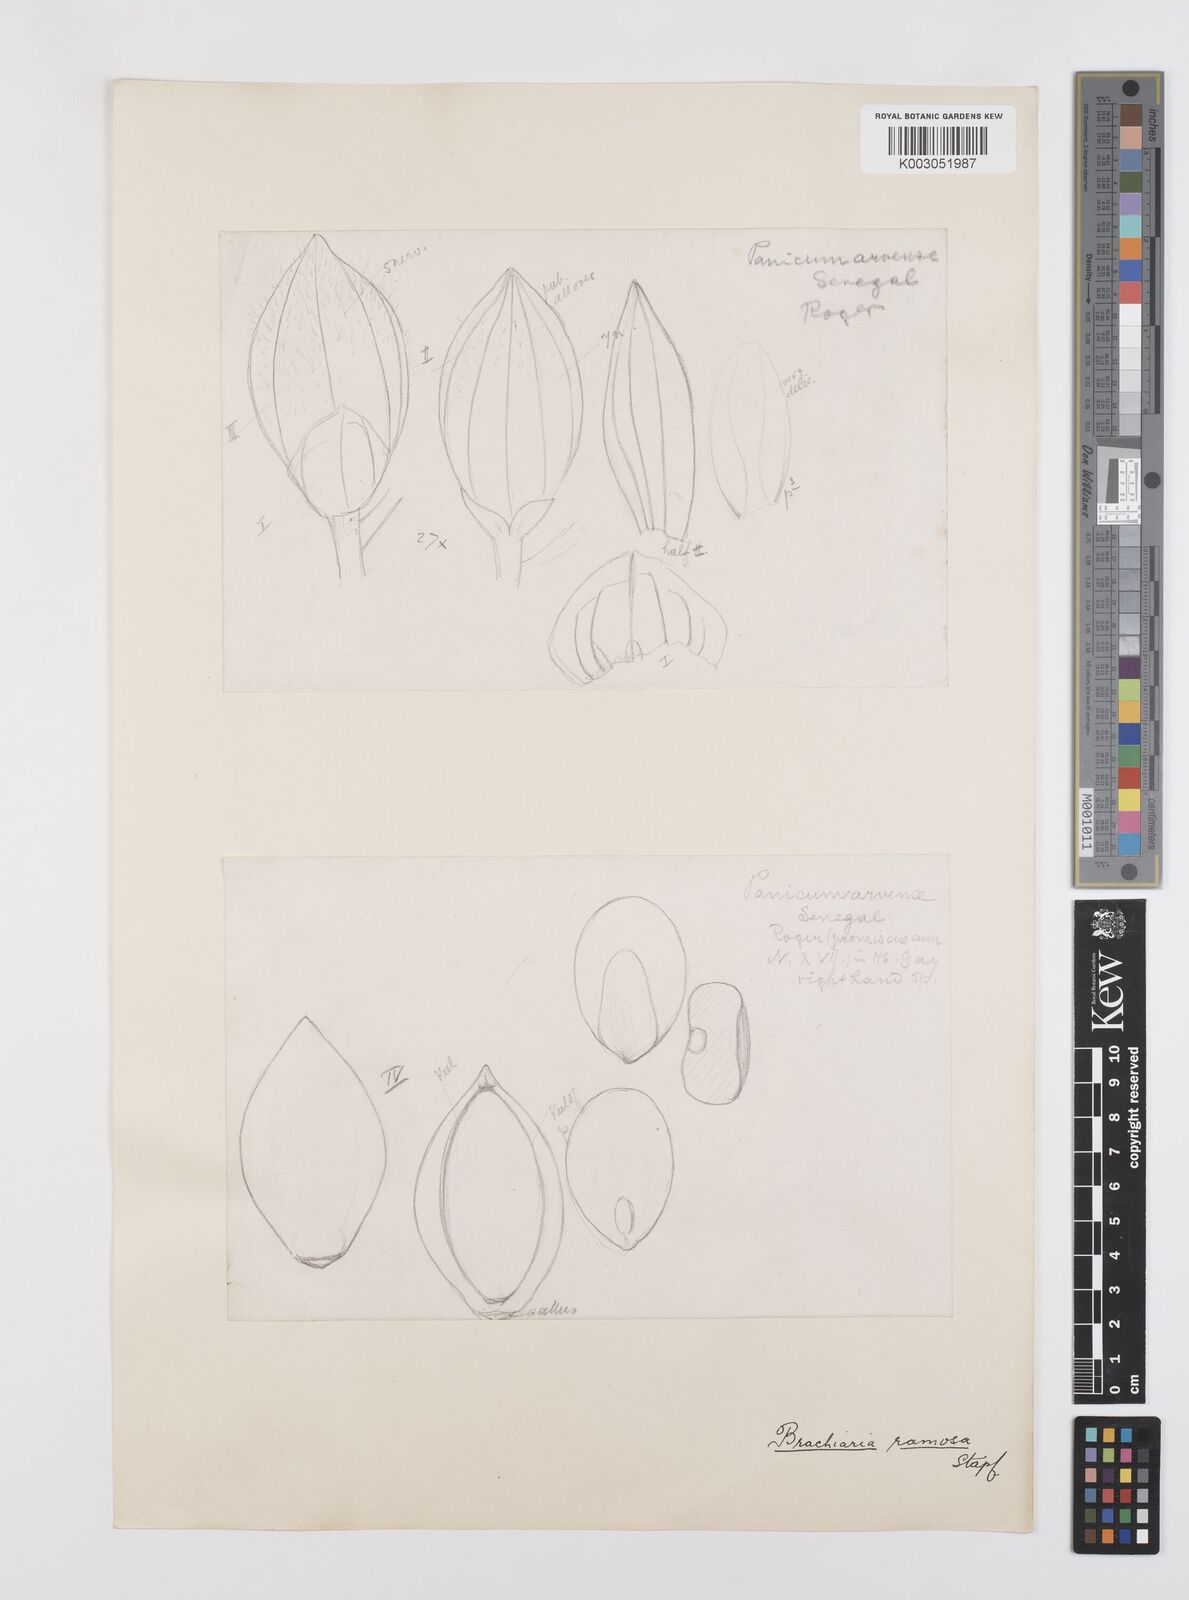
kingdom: Plantae
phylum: Tracheophyta
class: Liliopsida
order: Poales
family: Poaceae
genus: Urochloa
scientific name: Urochloa ramosa
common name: Browntop millet
